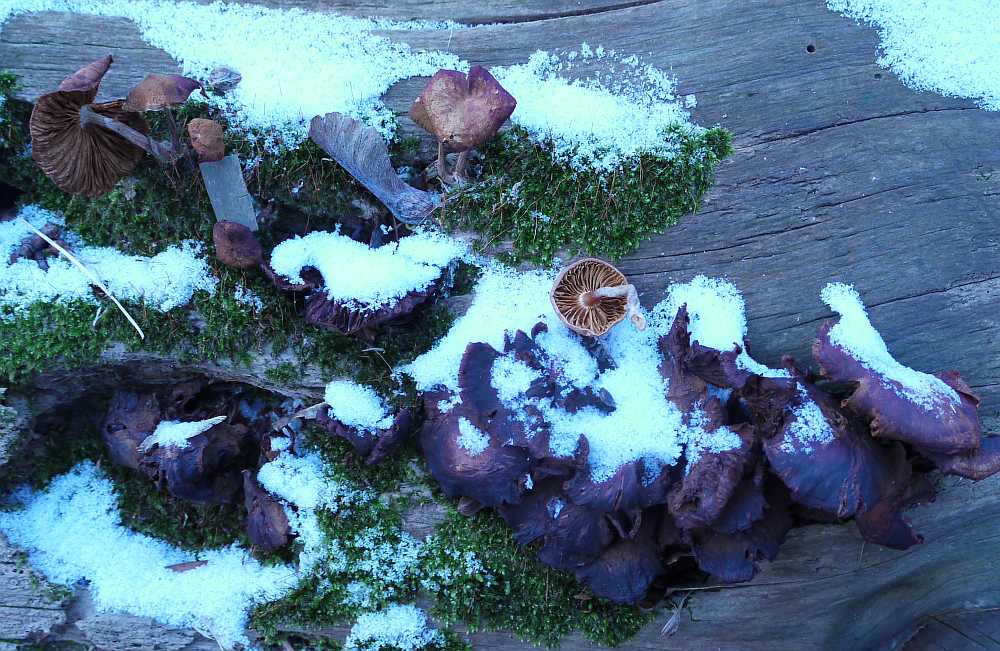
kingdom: Fungi
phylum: Basidiomycota
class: Agaricomycetes
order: Agaricales
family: Hymenogastraceae
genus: Gymnopilus
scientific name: Gymnopilus penetrans
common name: plettet flammehat
